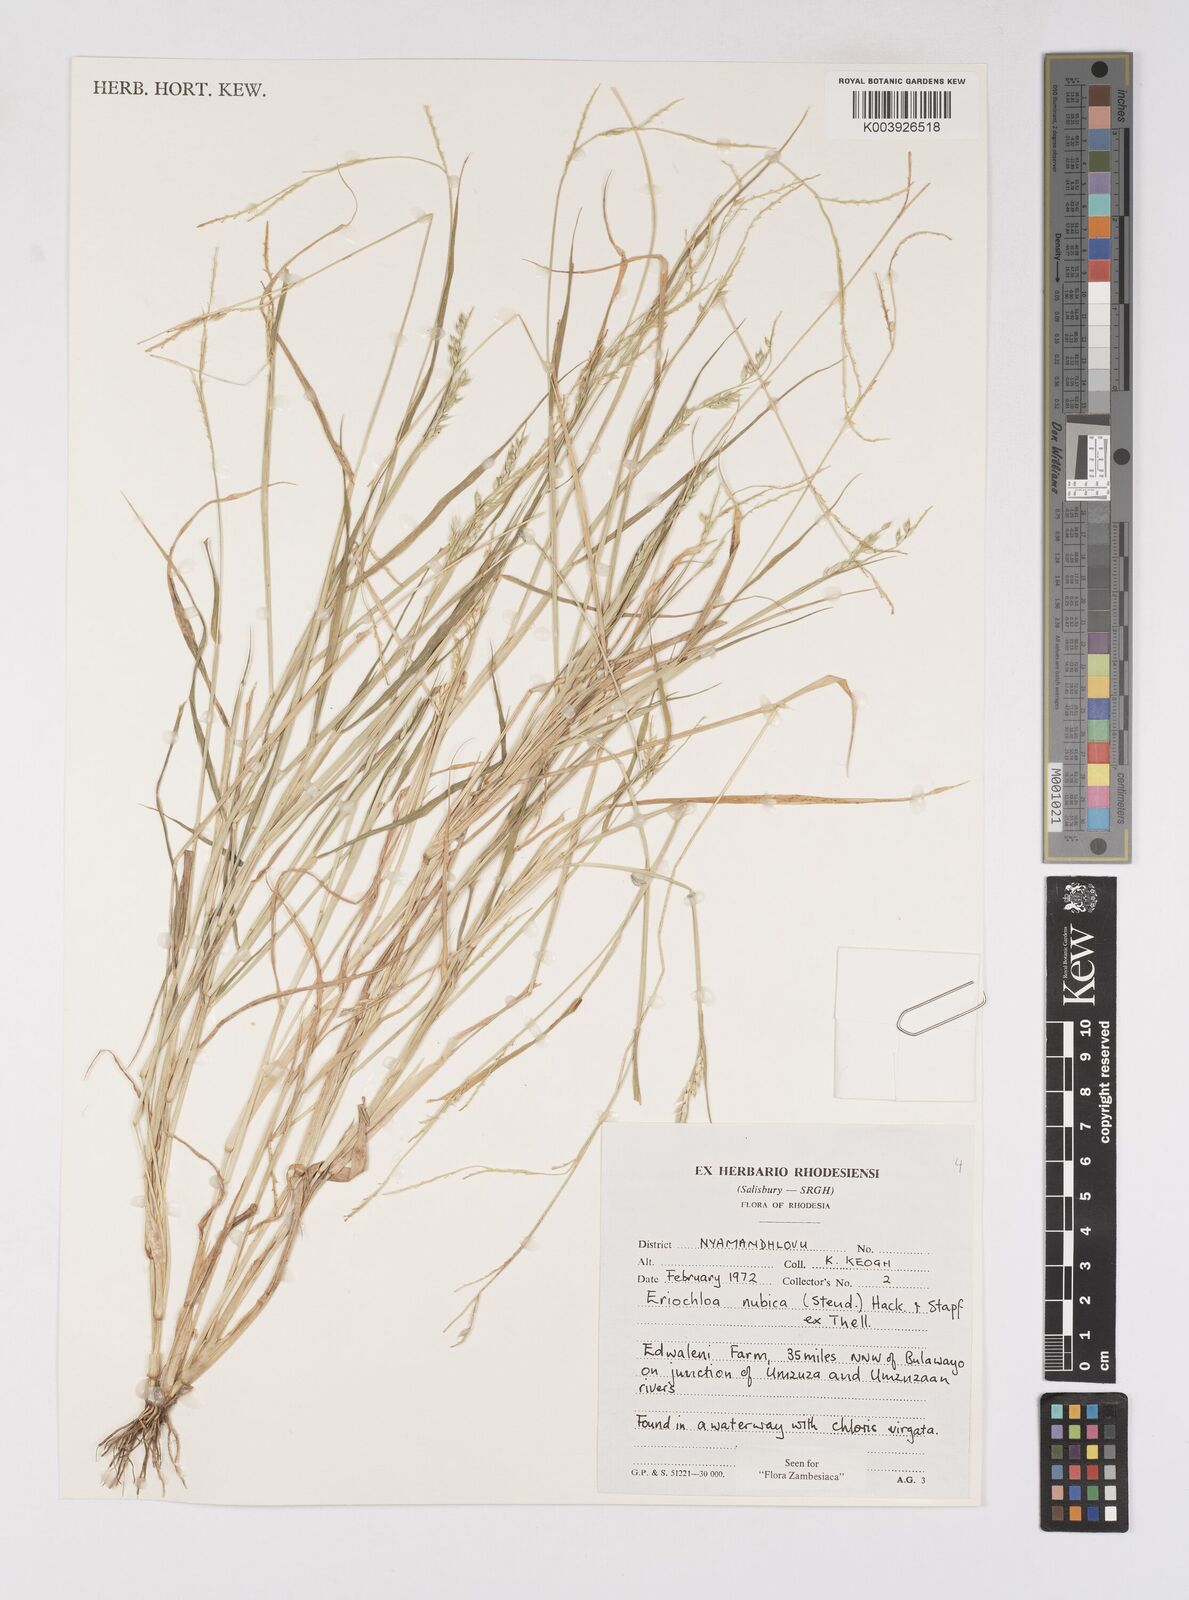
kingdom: Plantae
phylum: Tracheophyta
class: Liliopsida
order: Poales
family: Poaceae
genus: Eriochloa
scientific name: Eriochloa barbatus
